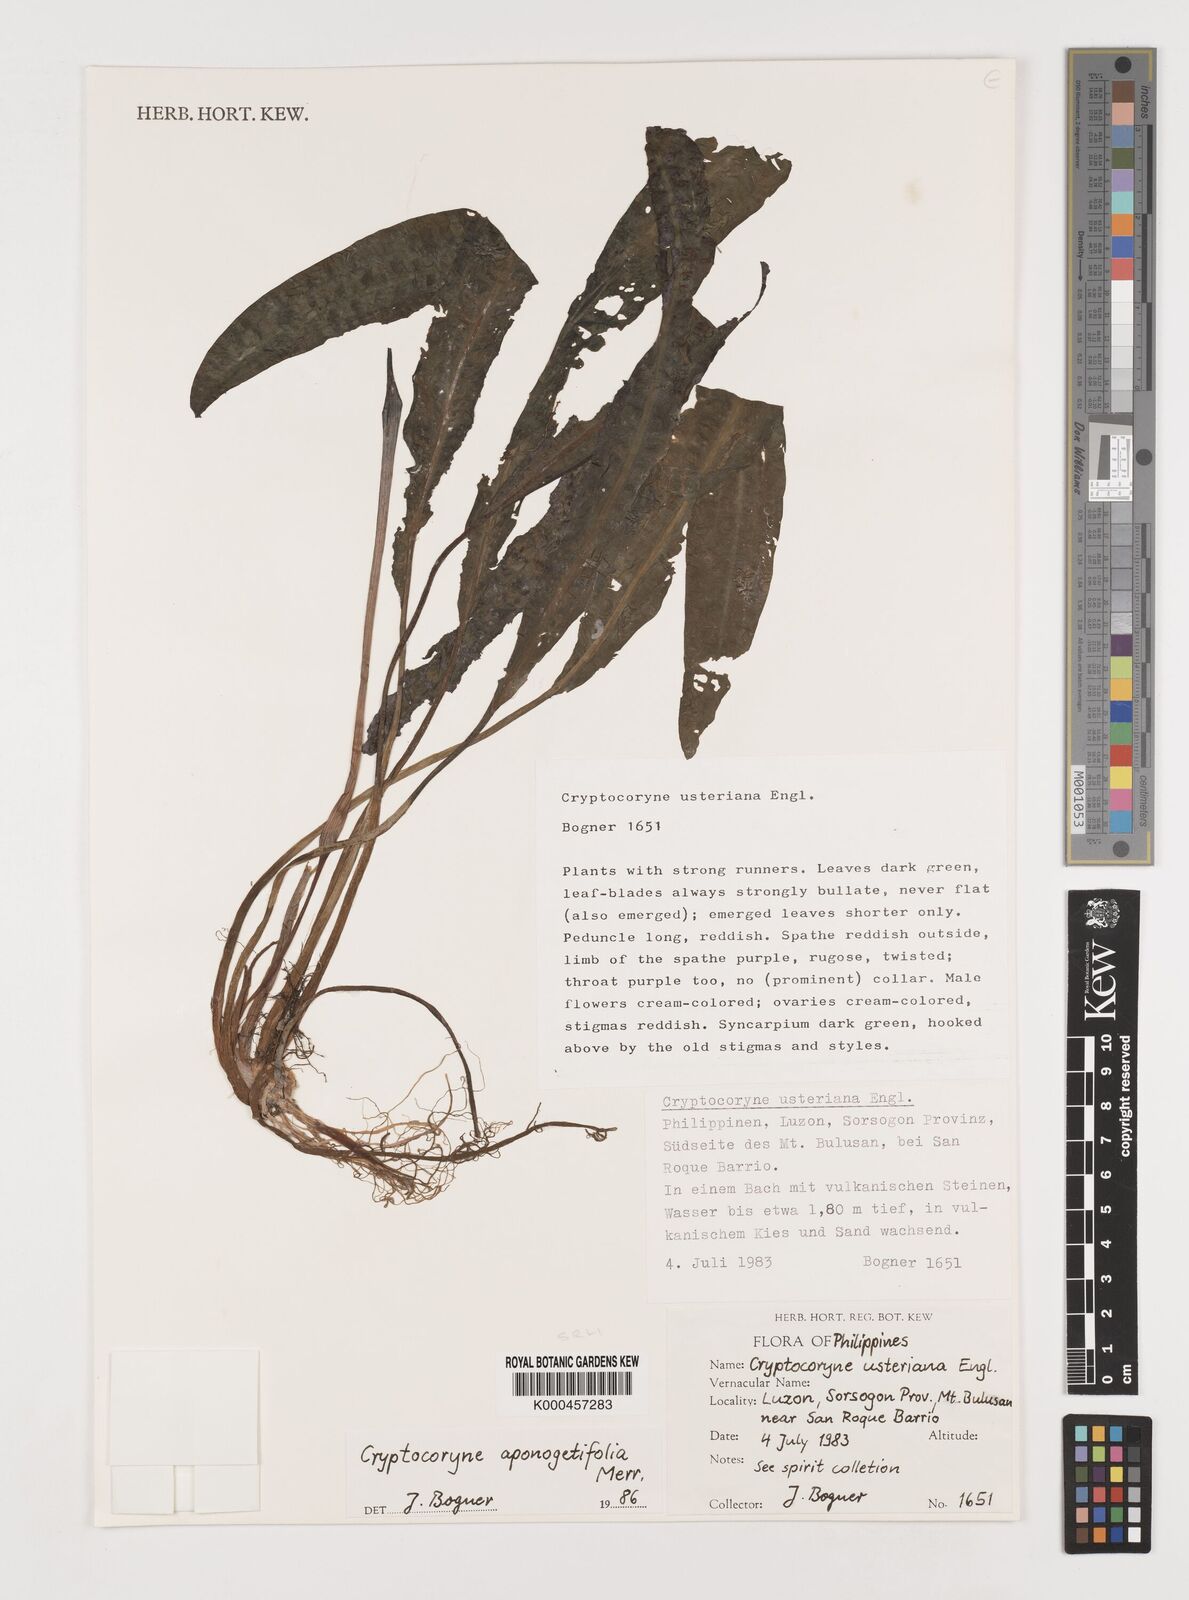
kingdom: Plantae
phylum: Tracheophyta
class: Liliopsida
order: Alismatales
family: Araceae
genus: Cryptocoryne
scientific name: Cryptocoryne aponogetifolia
